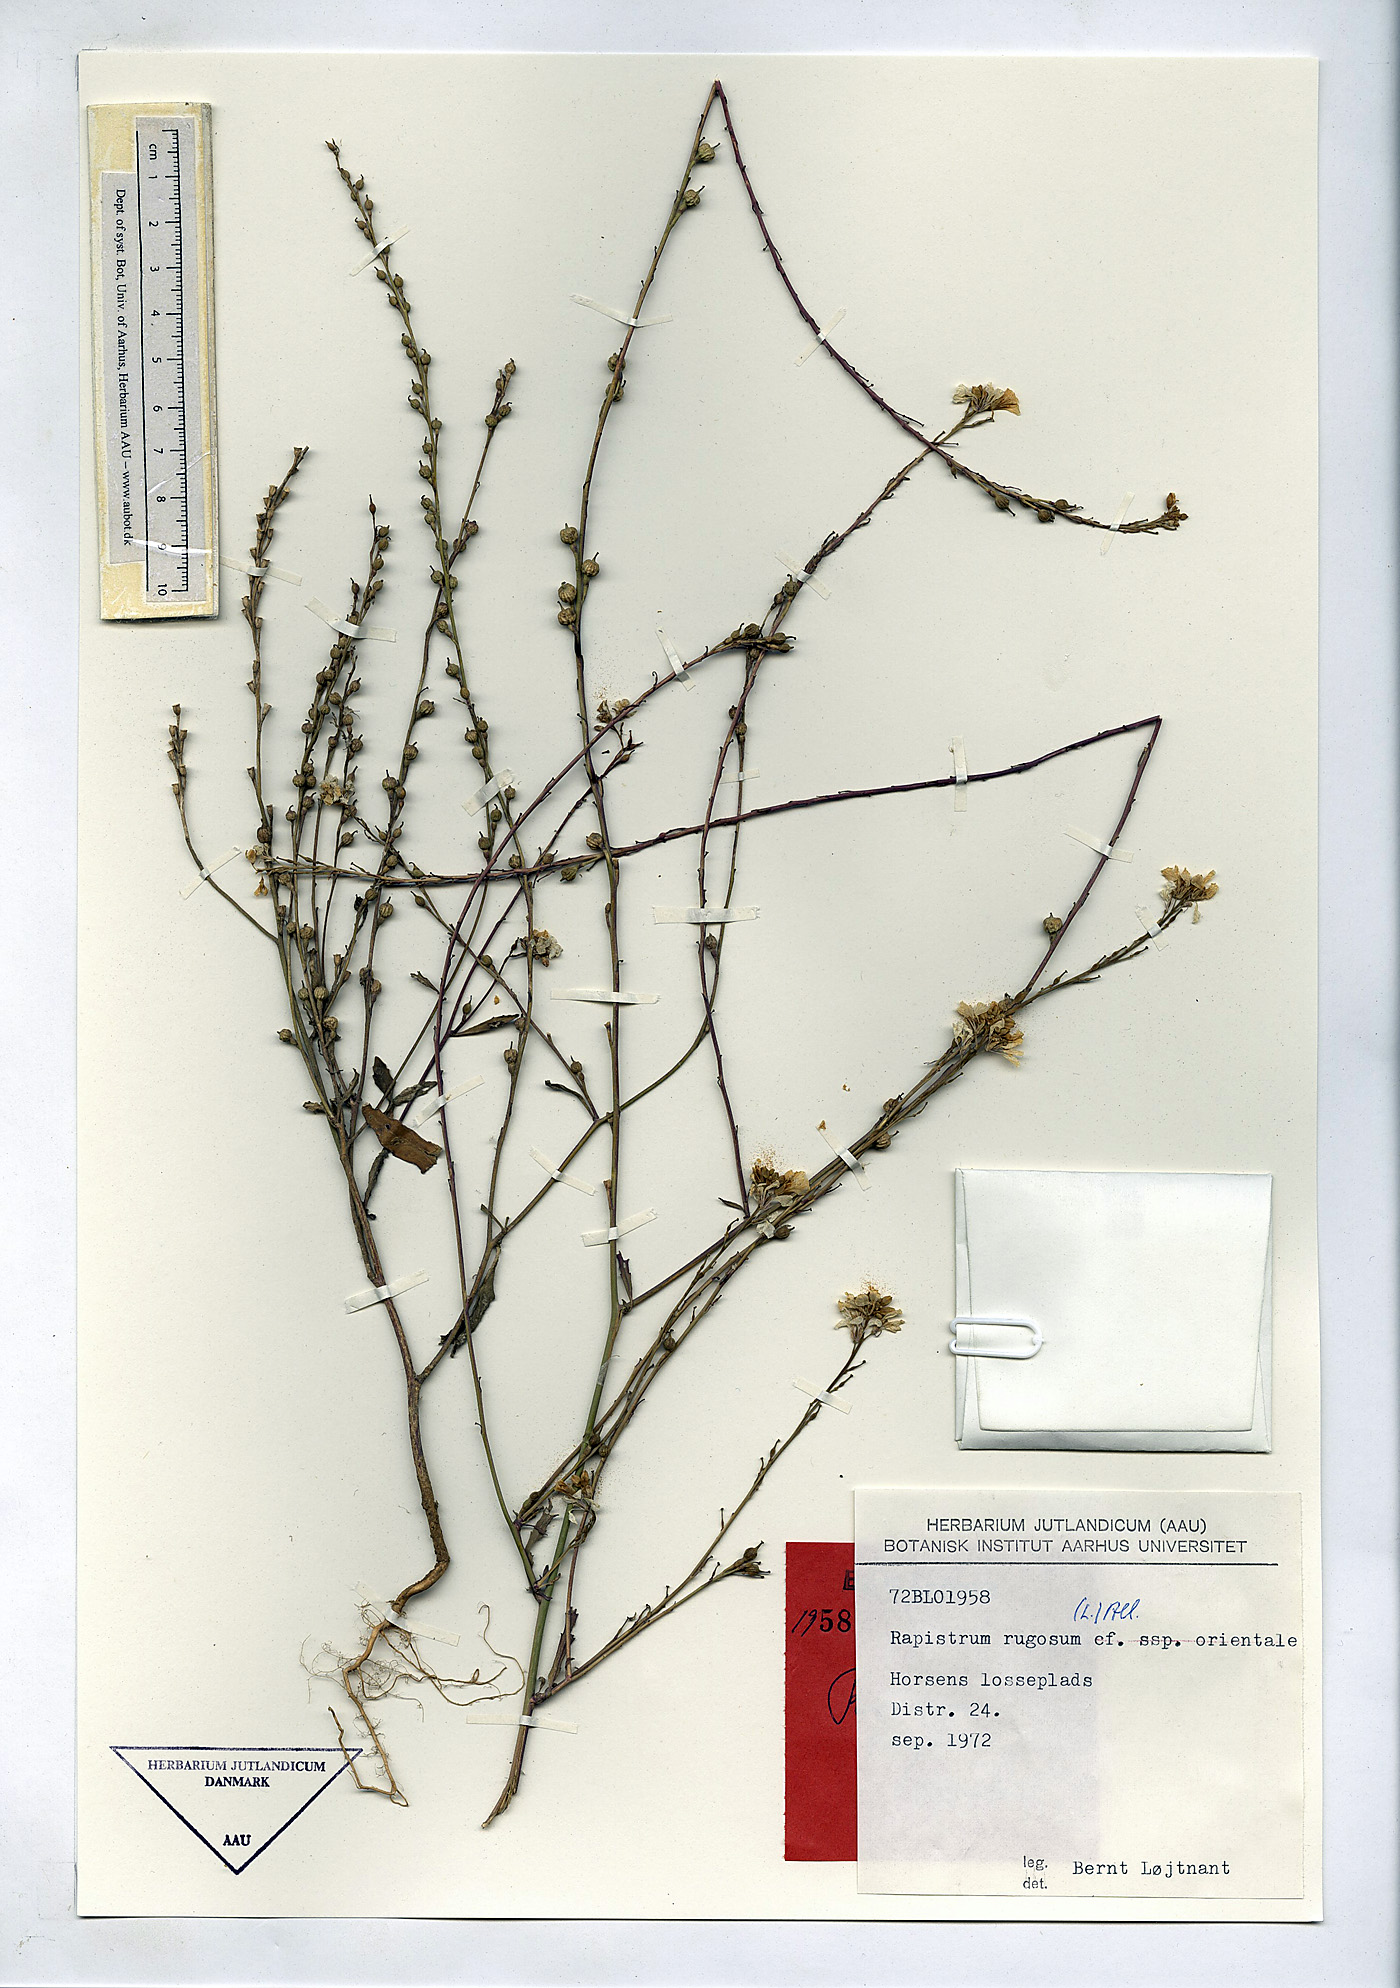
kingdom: Plantae
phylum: Tracheophyta
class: Magnoliopsida
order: Brassicales
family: Brassicaceae
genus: Rapistrum
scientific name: Rapistrum rugosum
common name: Annual bastardcabbage
